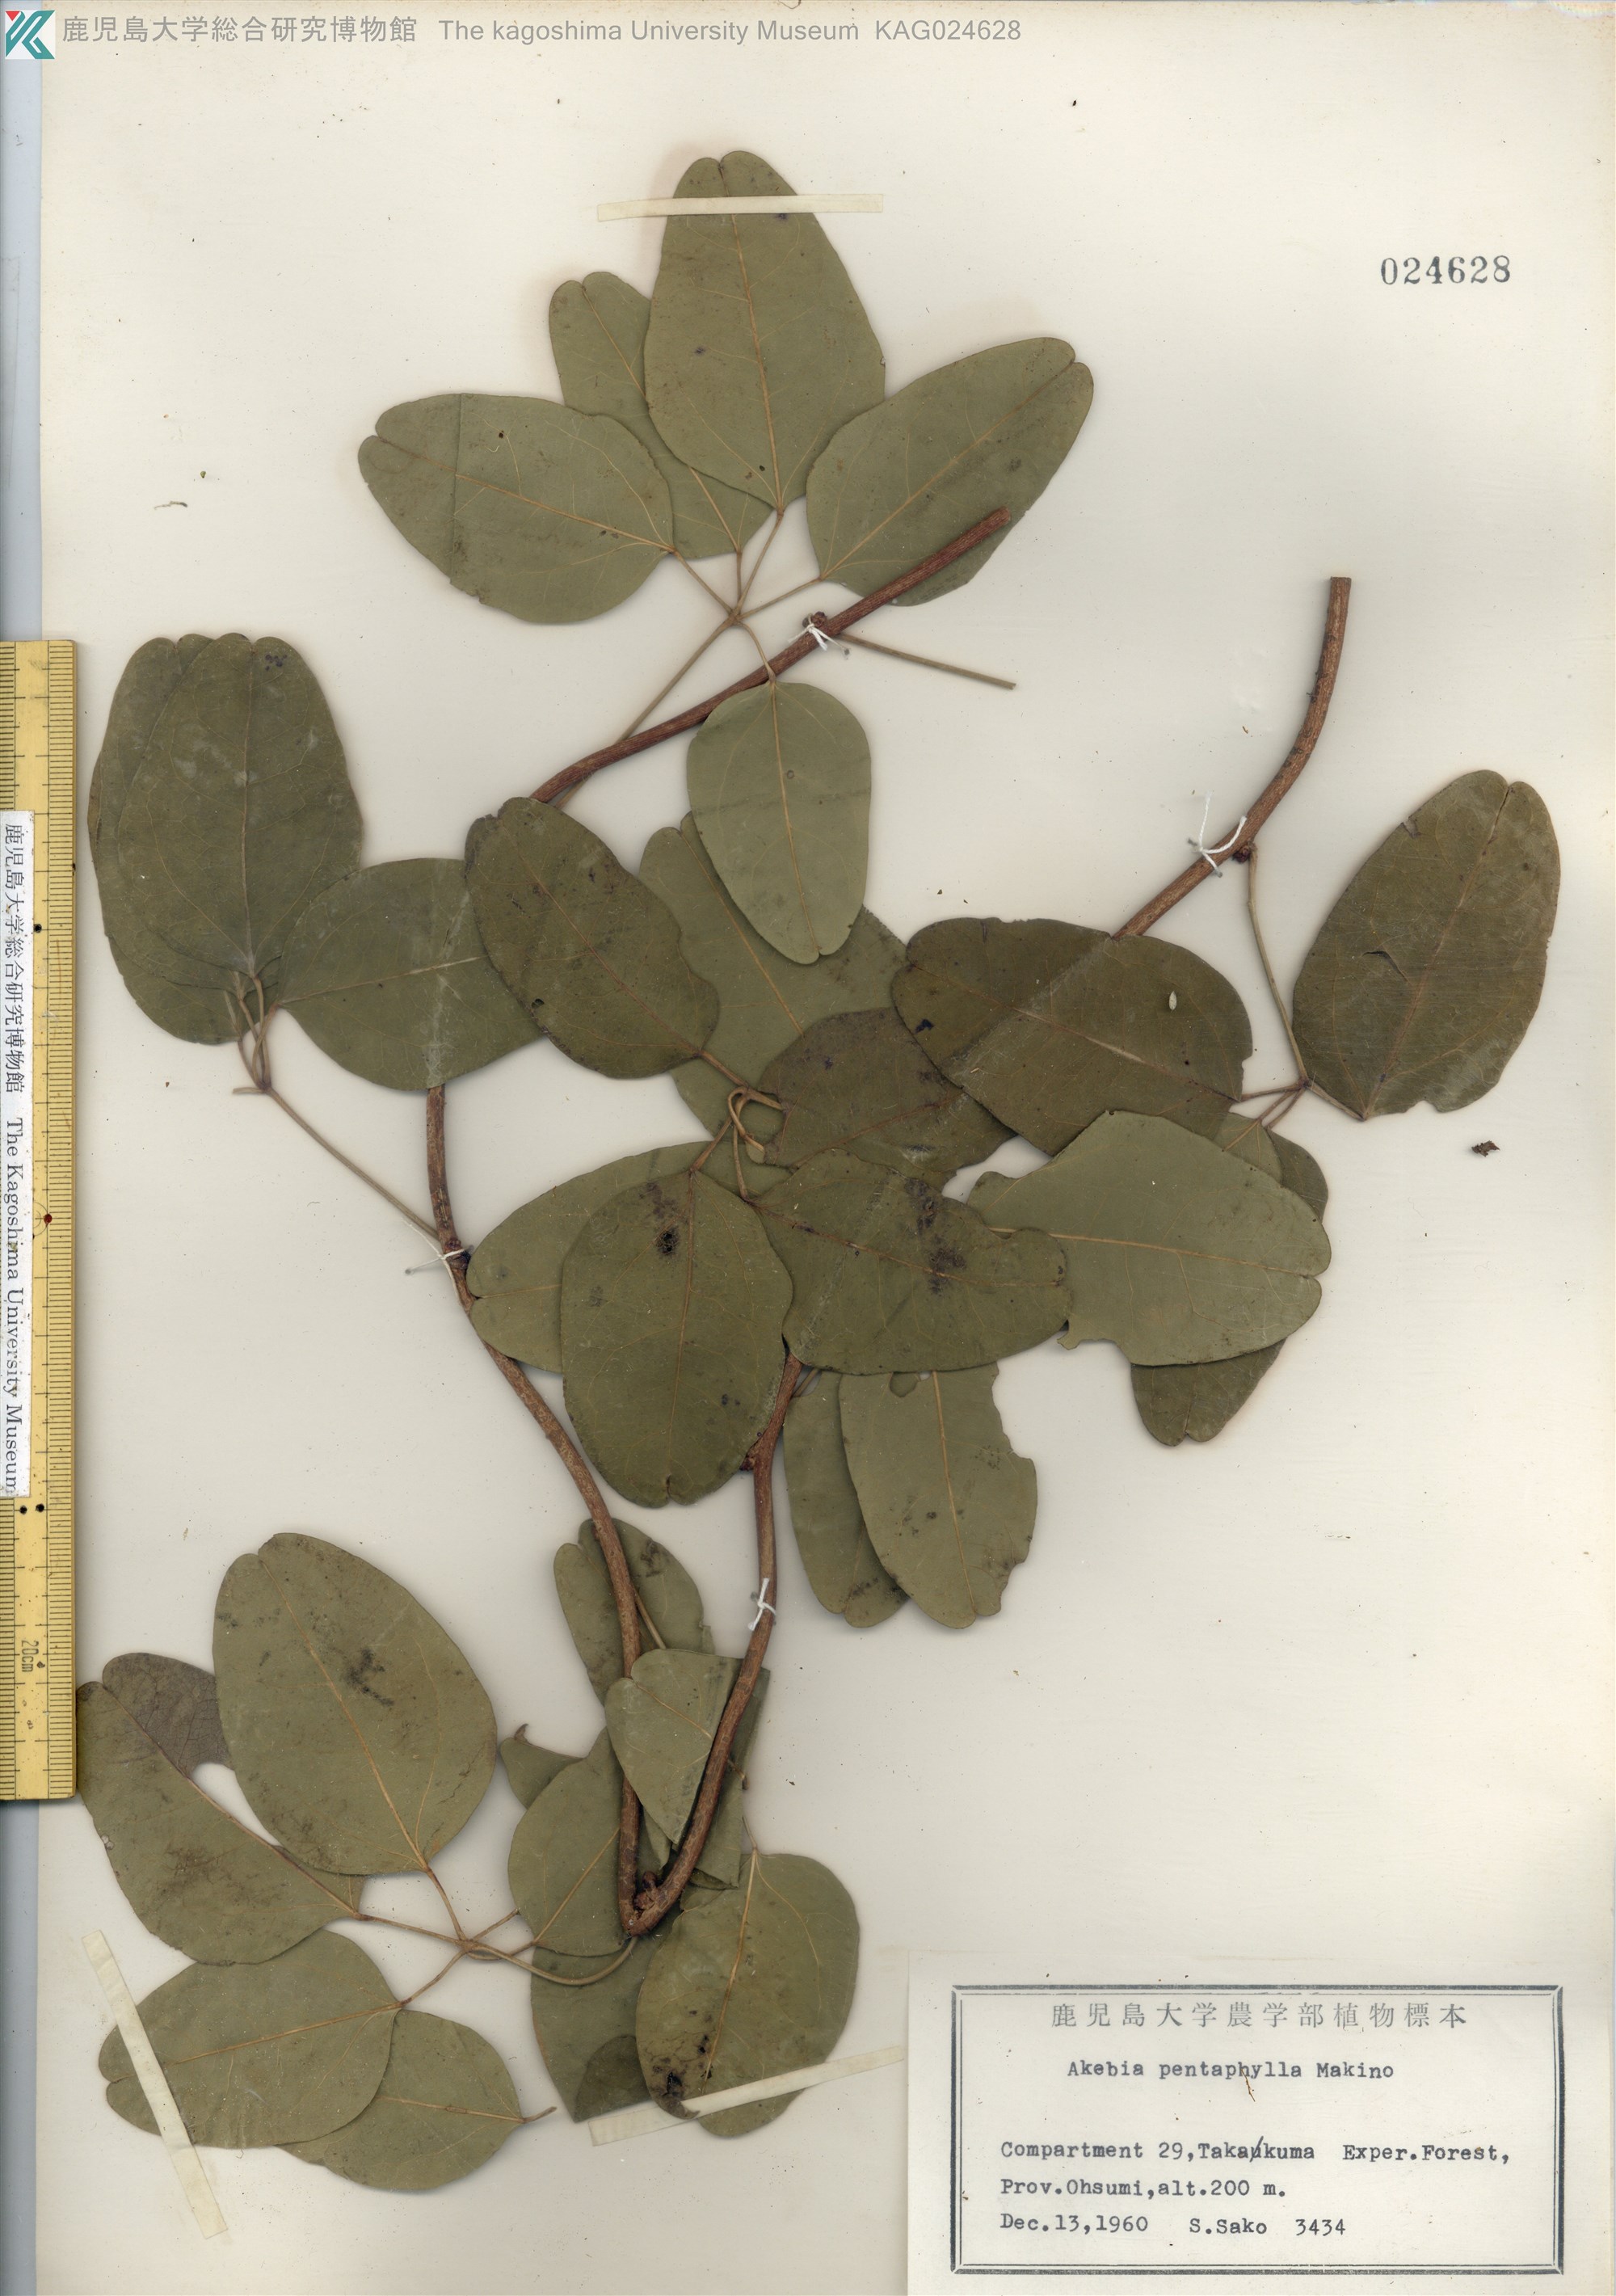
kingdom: Plantae
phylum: Tracheophyta
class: Magnoliopsida
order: Ranunculales
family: Lardizabalaceae
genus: Akebia
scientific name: Akebia pentaphylla
